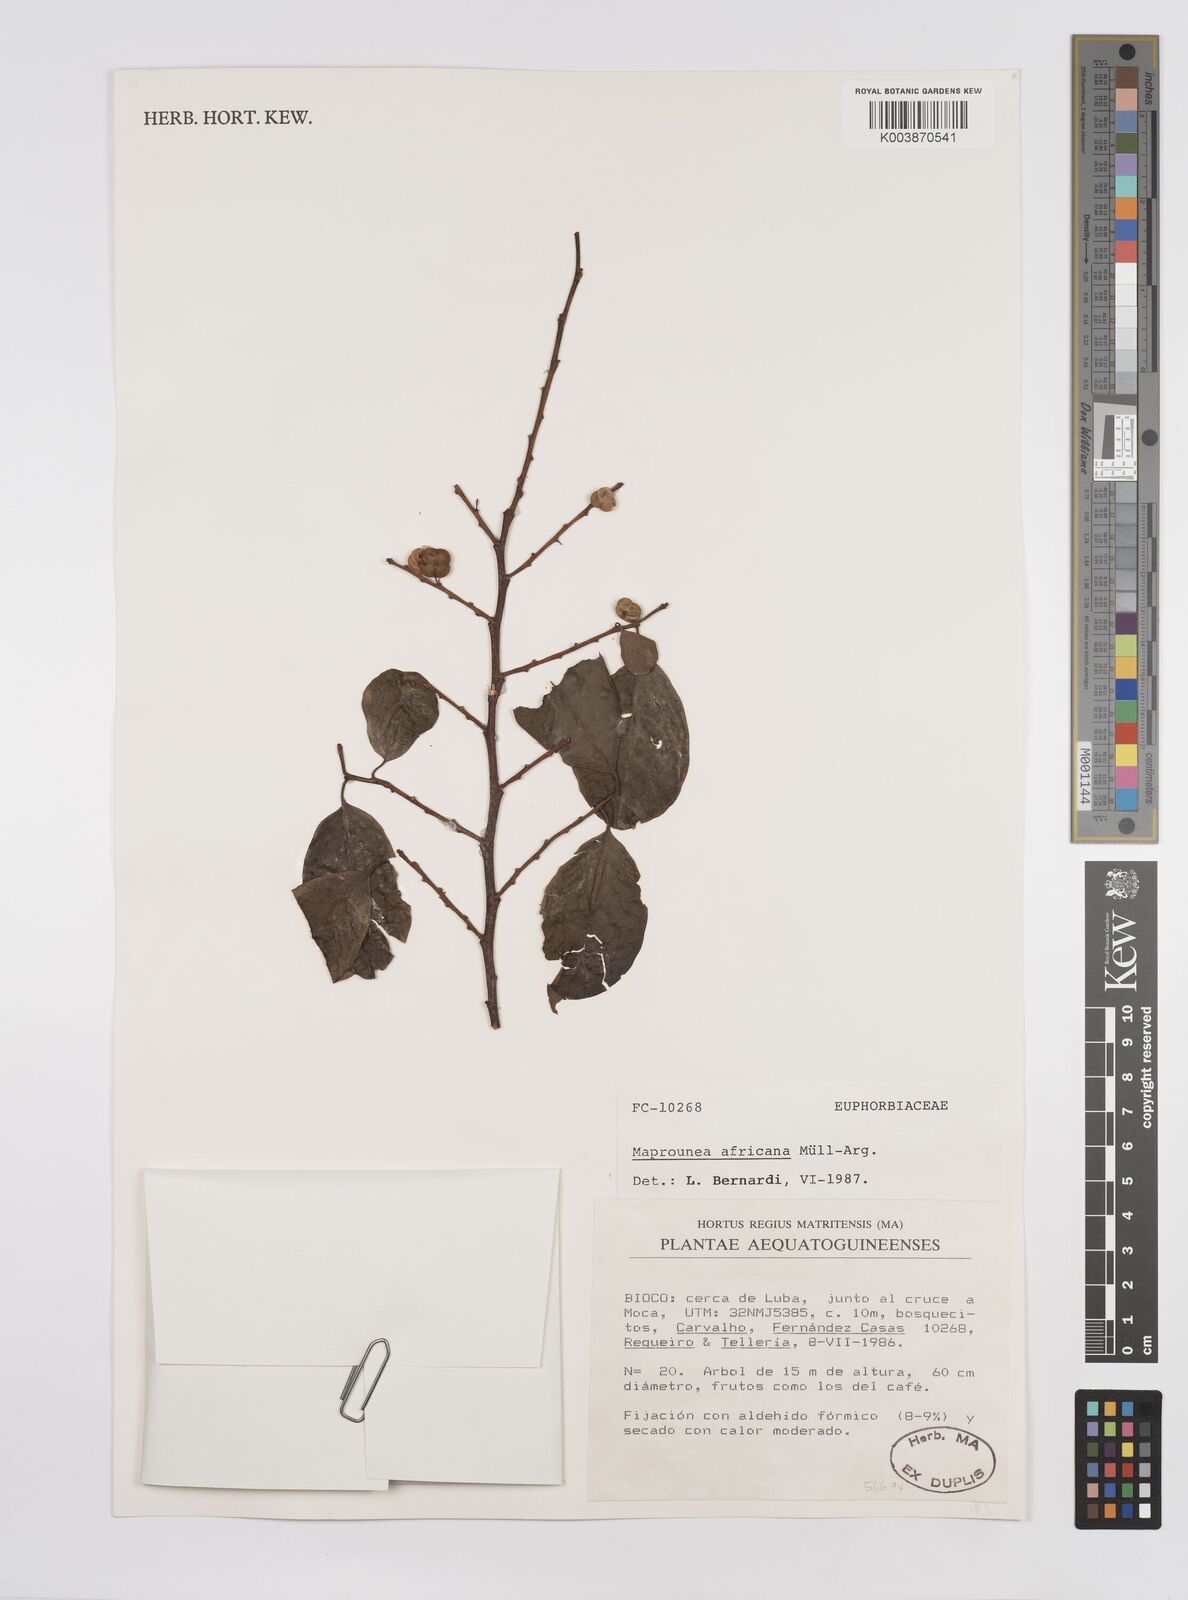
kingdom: Plantae
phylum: Tracheophyta
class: Magnoliopsida
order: Malpighiales
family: Euphorbiaceae
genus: Maprounea
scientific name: Maprounea africana
